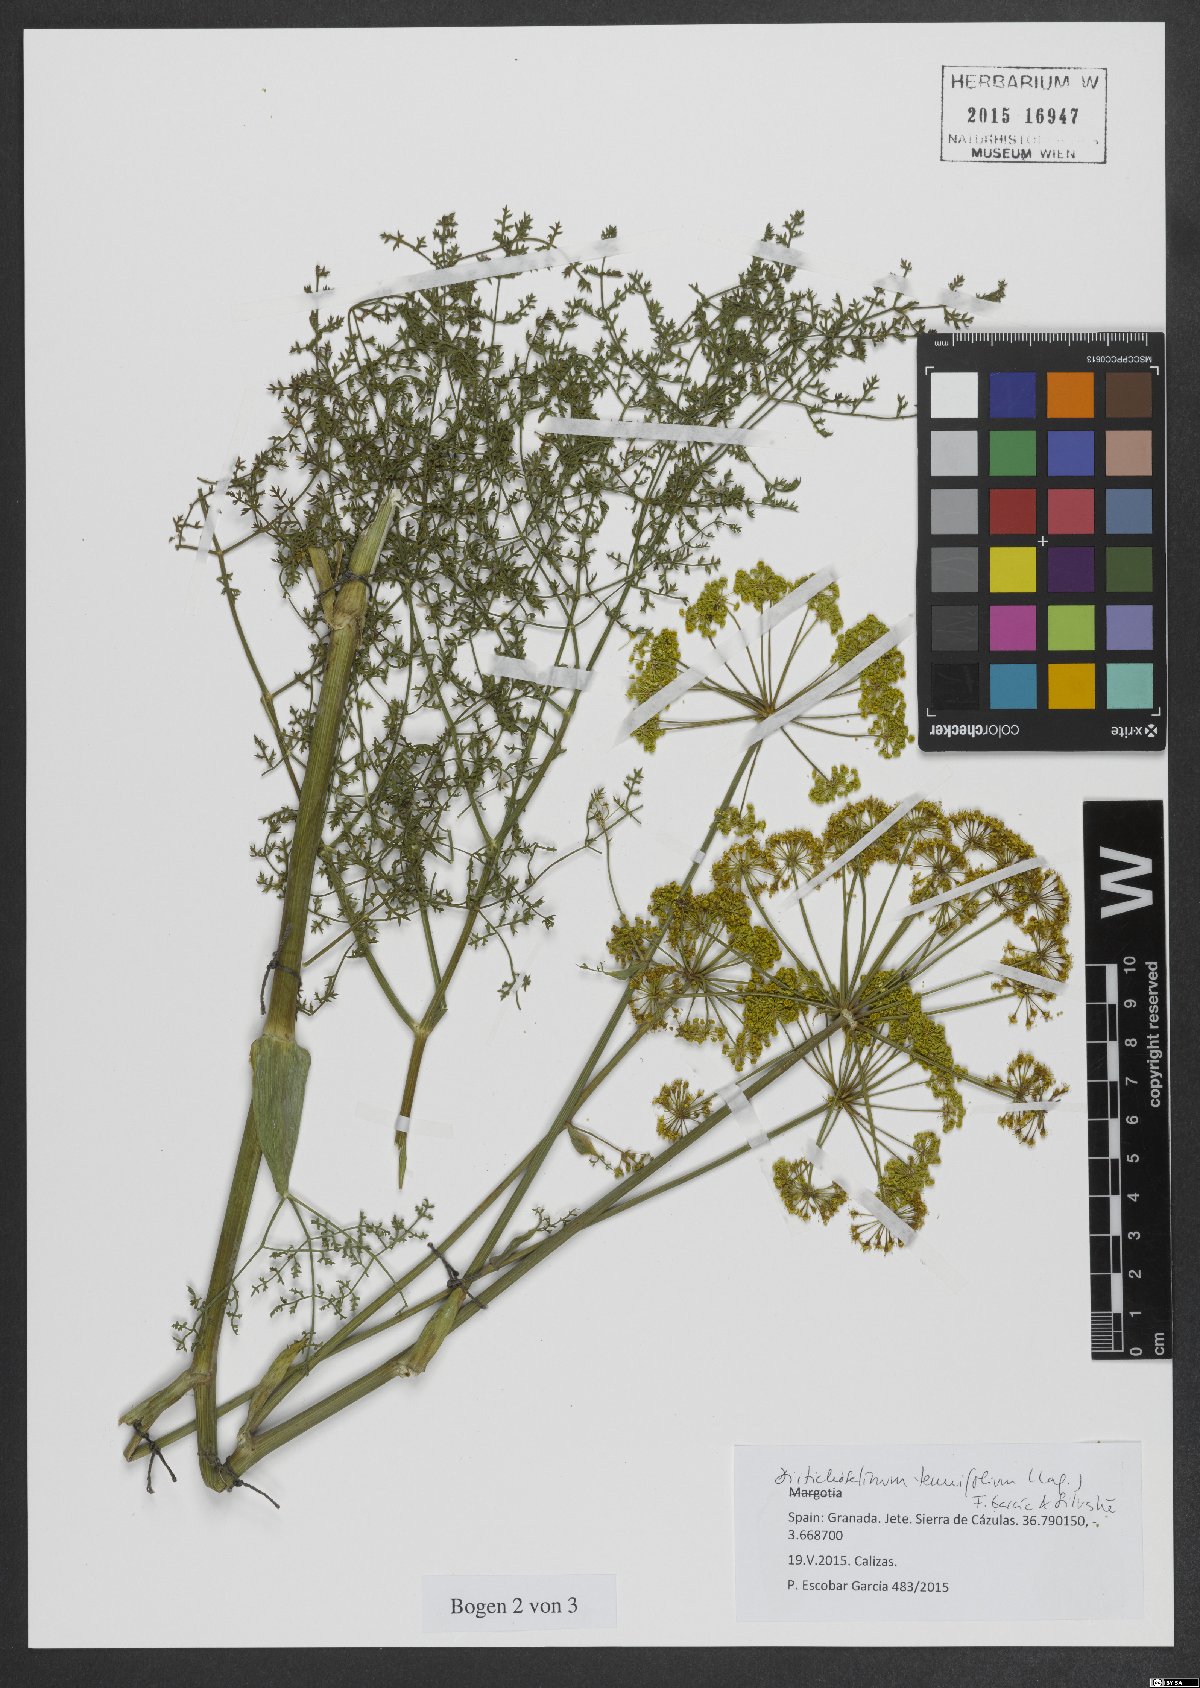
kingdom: Plantae
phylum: Tracheophyta
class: Magnoliopsida
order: Apiales
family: Apiaceae
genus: Thapsia
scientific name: Thapsia tenuifolia
